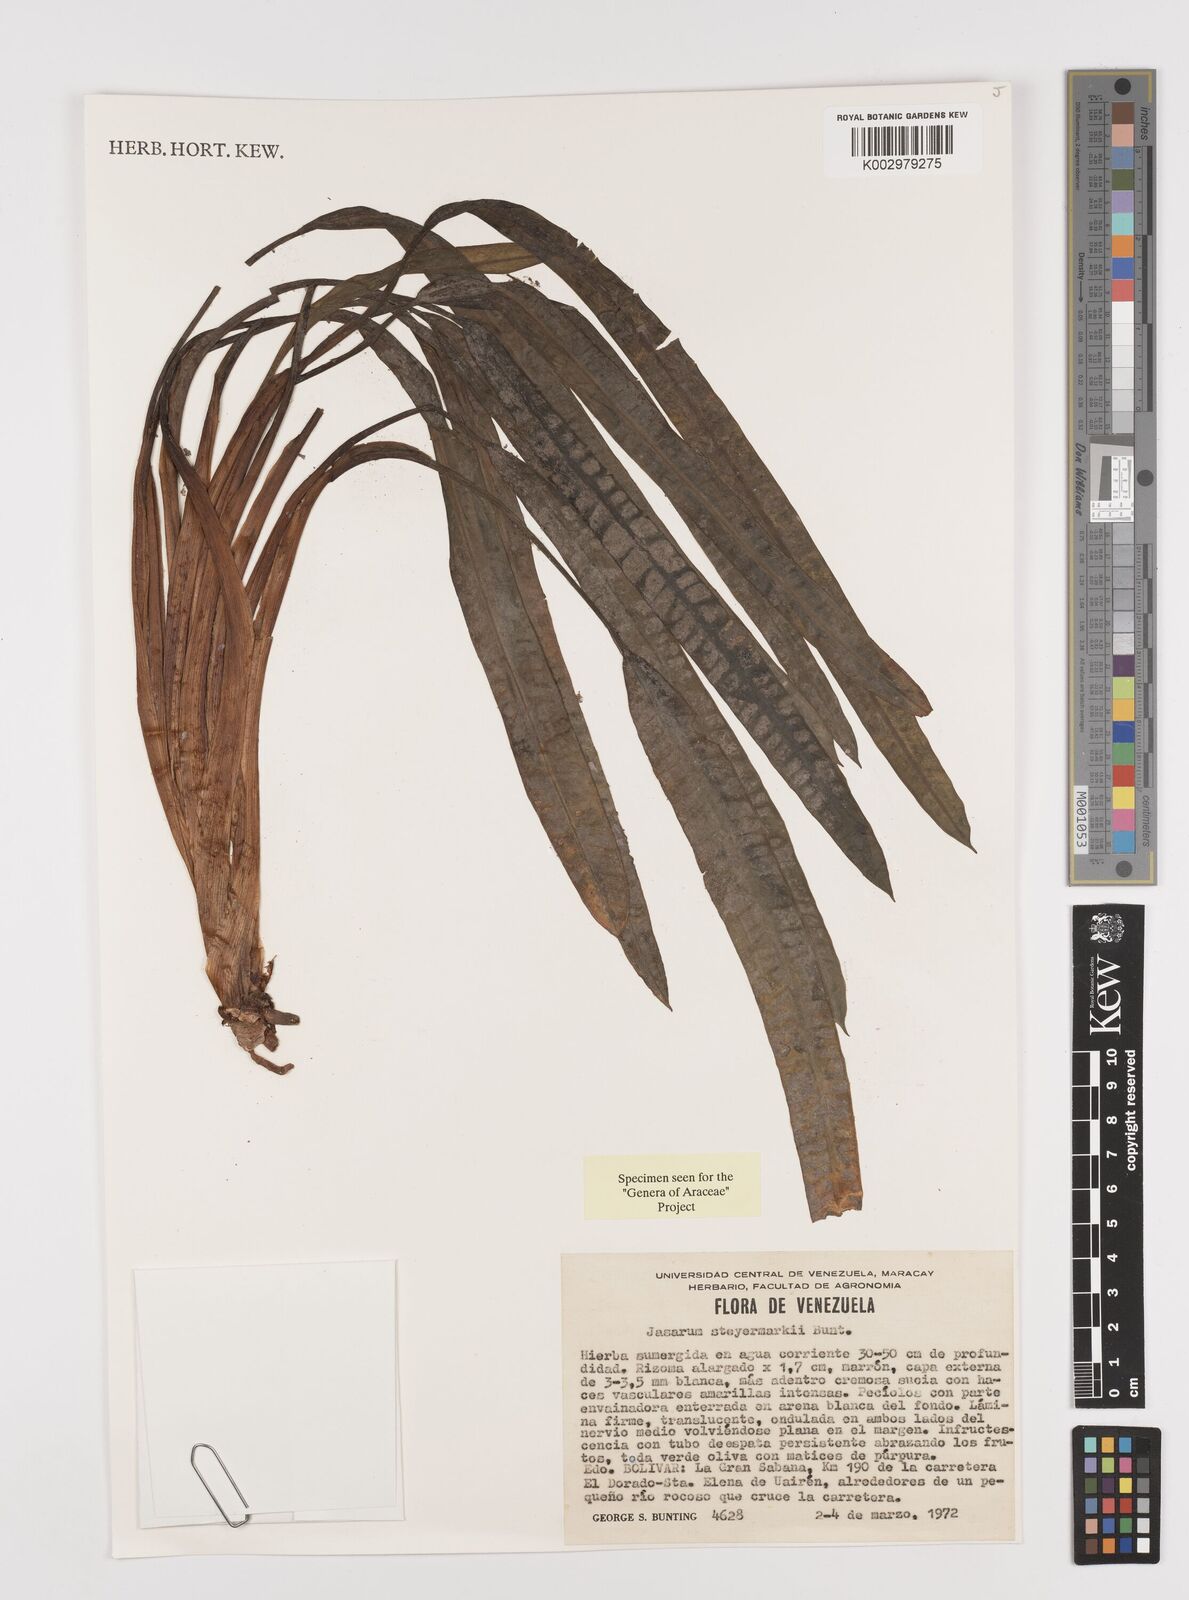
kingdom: Plantae
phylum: Tracheophyta
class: Liliopsida
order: Alismatales
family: Araceae
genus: Jasarum
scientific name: Jasarum steyermarkii
